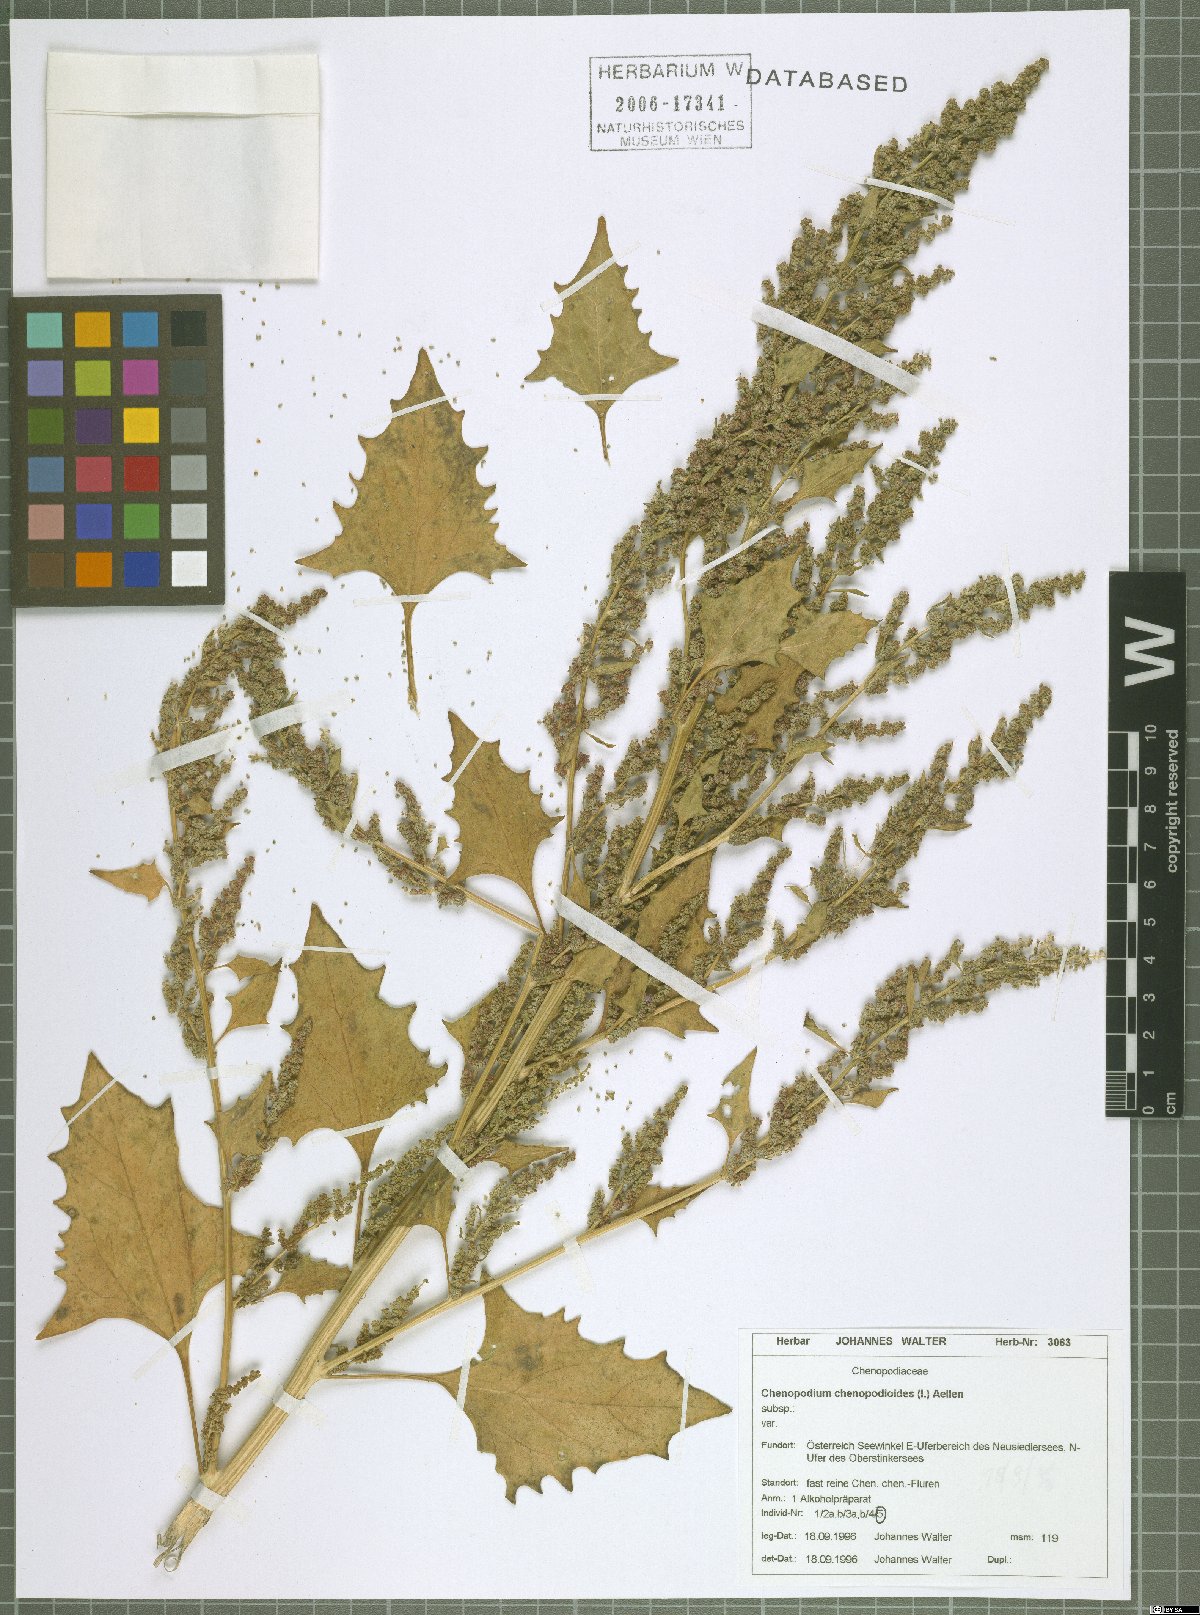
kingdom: Plantae
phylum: Tracheophyta
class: Magnoliopsida
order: Caryophyllales
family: Amaranthaceae
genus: Oxybasis
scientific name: Oxybasis chenopodioides
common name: Saltmarsh goosefoot
